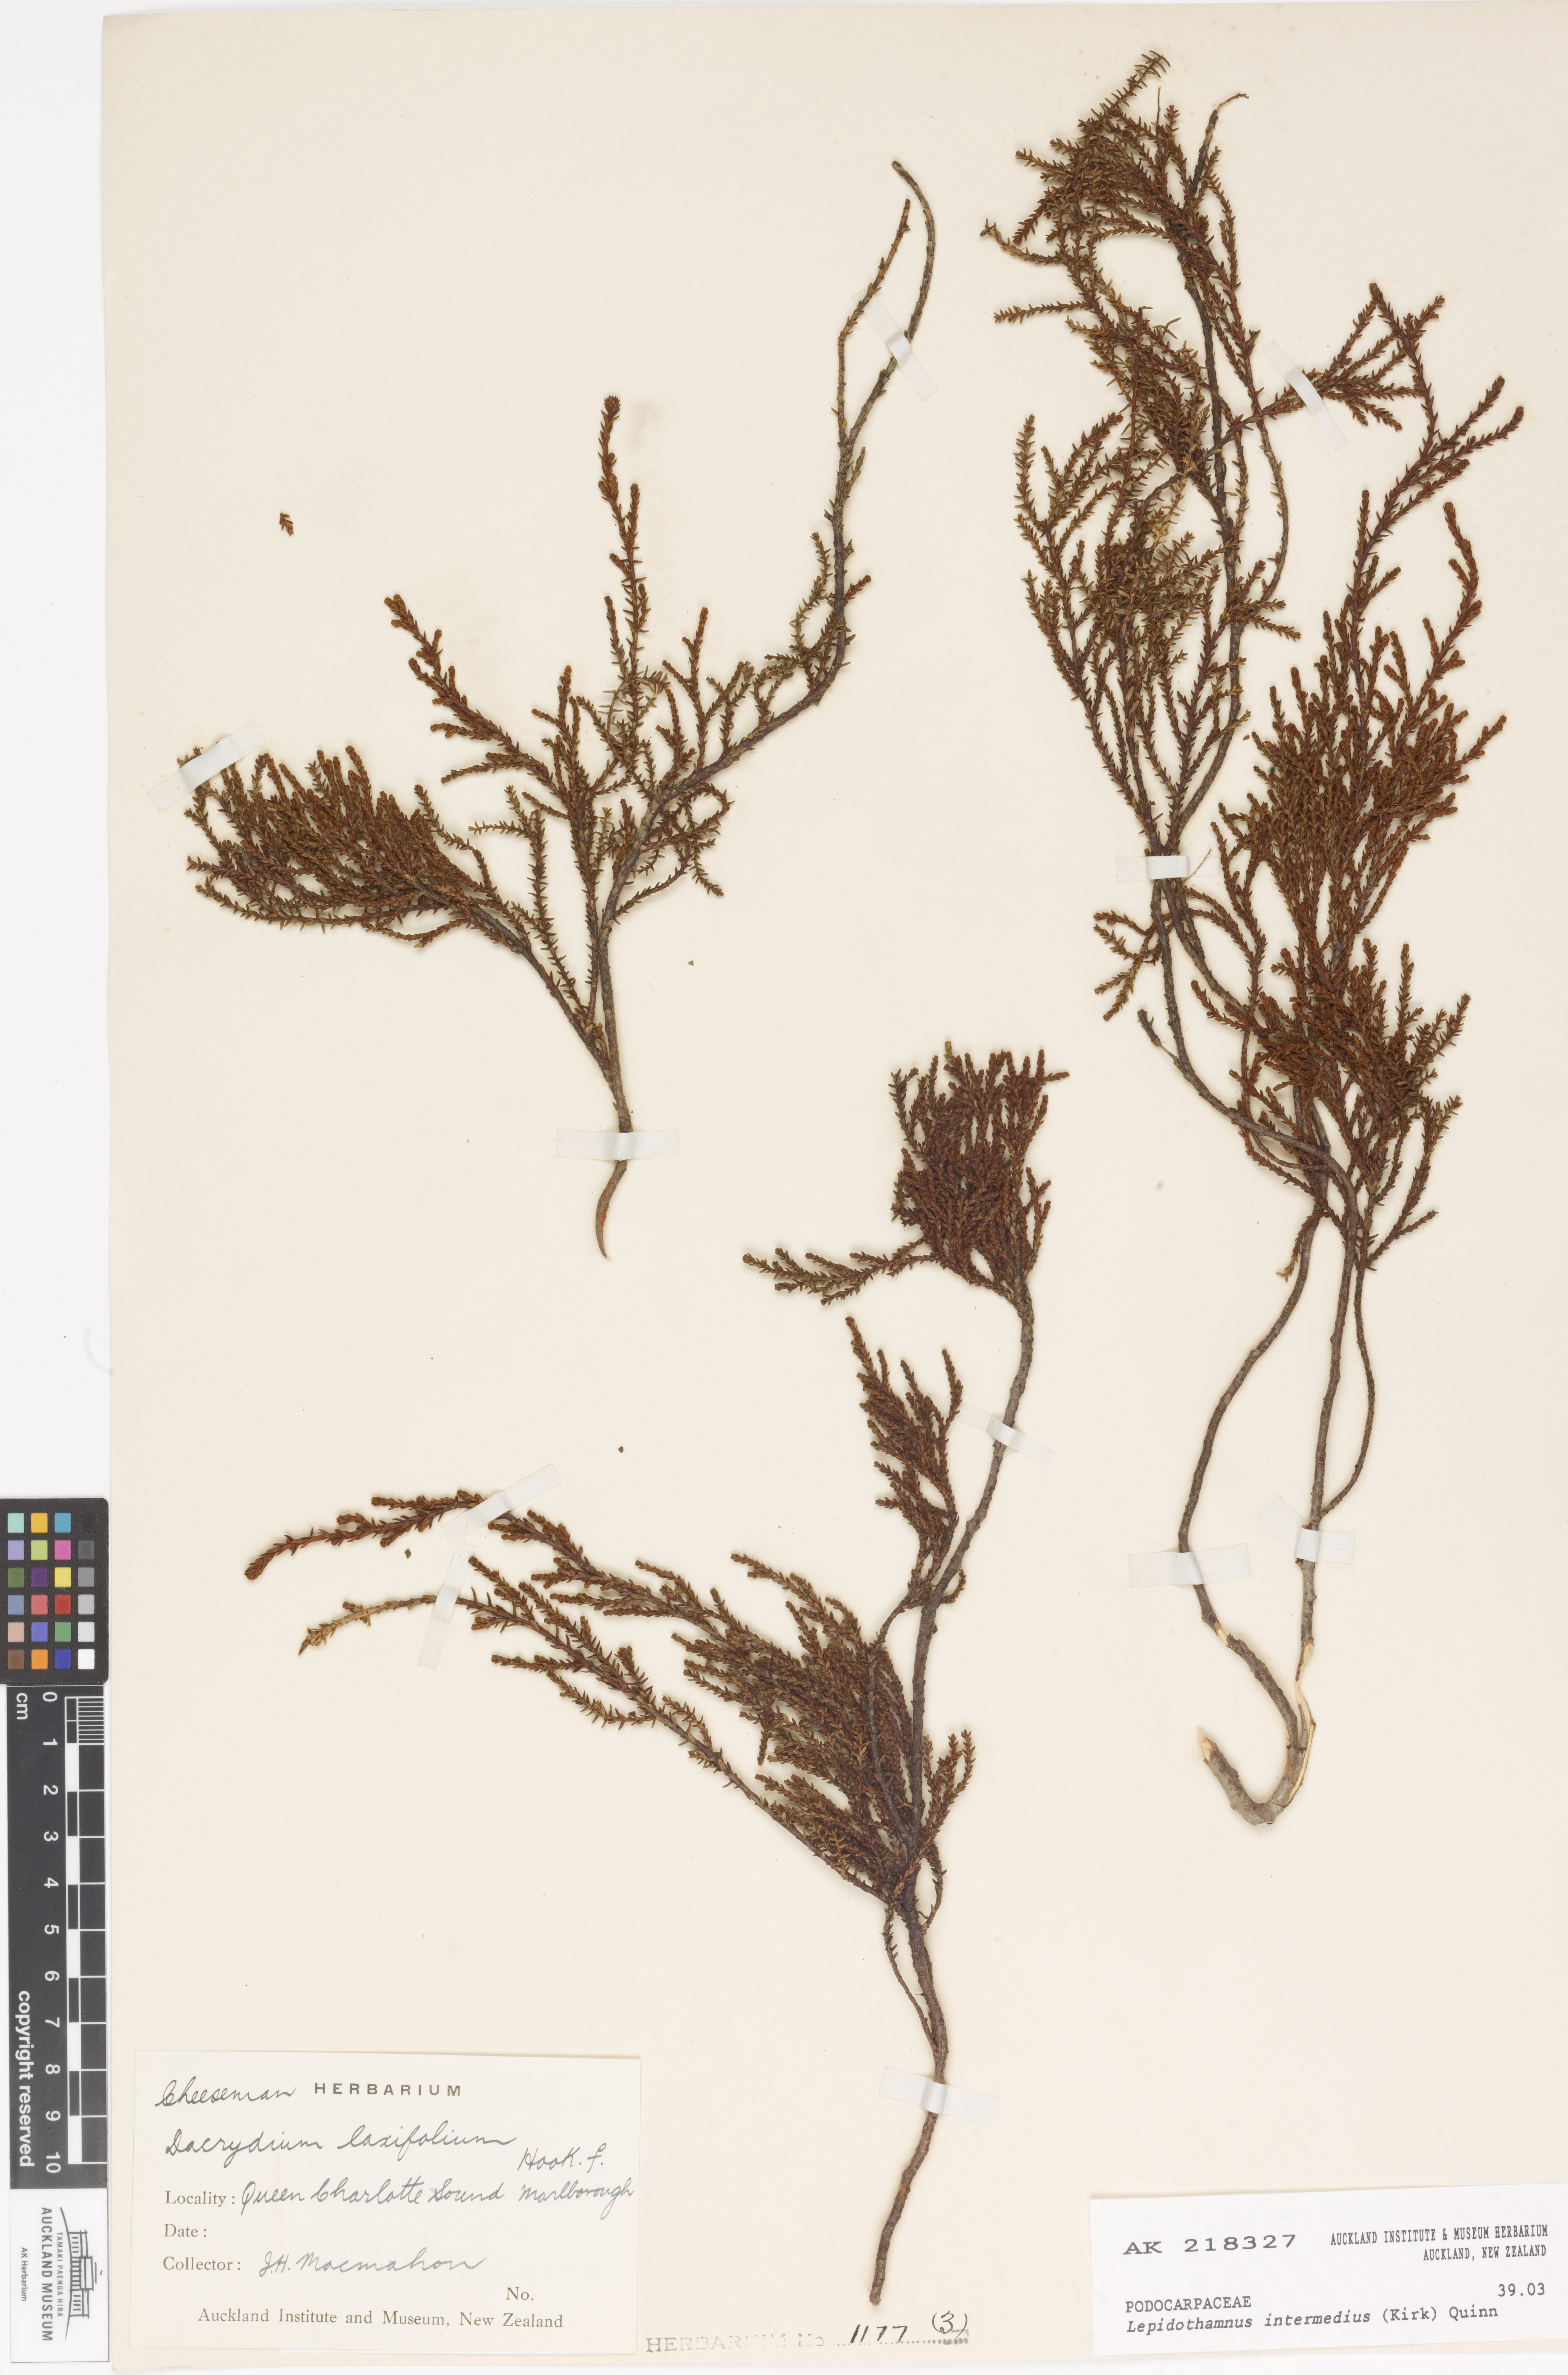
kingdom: Plantae
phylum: Tracheophyta
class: Pinopsida
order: Pinales
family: Podocarpaceae
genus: Lepidothamnus
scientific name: Lepidothamnus intermedius
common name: Yellow silver pine
